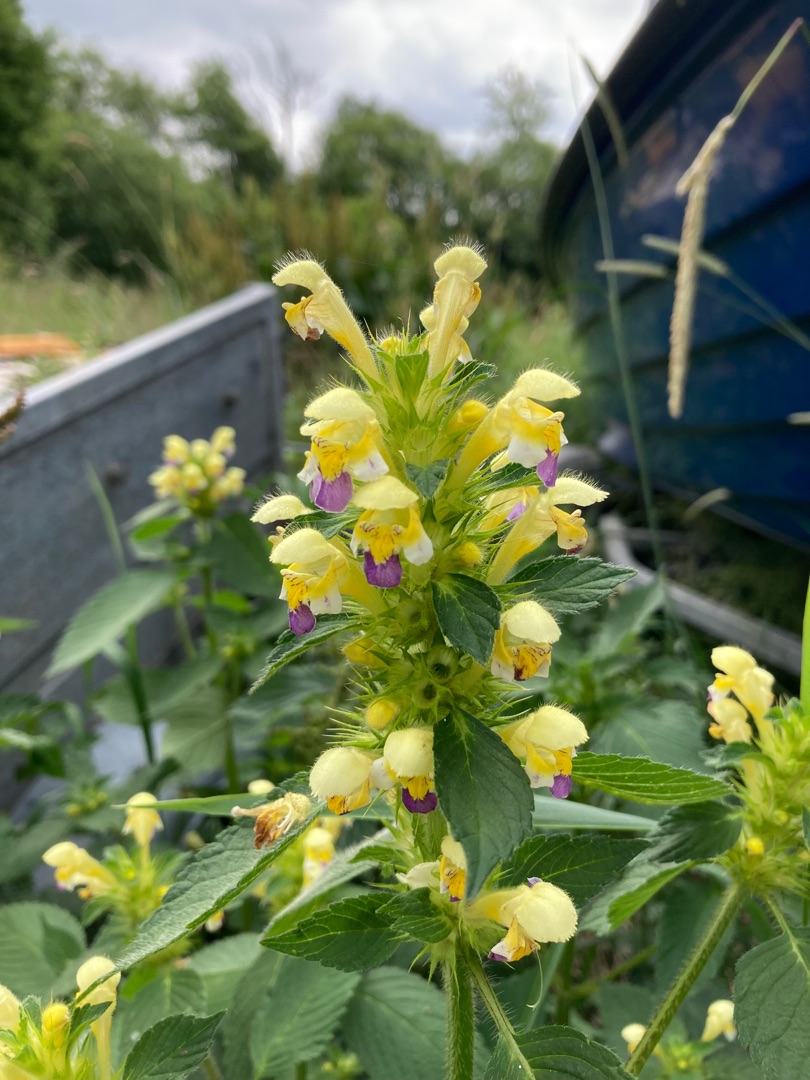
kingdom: Plantae
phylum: Tracheophyta
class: Magnoliopsida
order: Lamiales
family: Lamiaceae
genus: Galeopsis
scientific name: Galeopsis speciosa
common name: Hamp-hanekro
